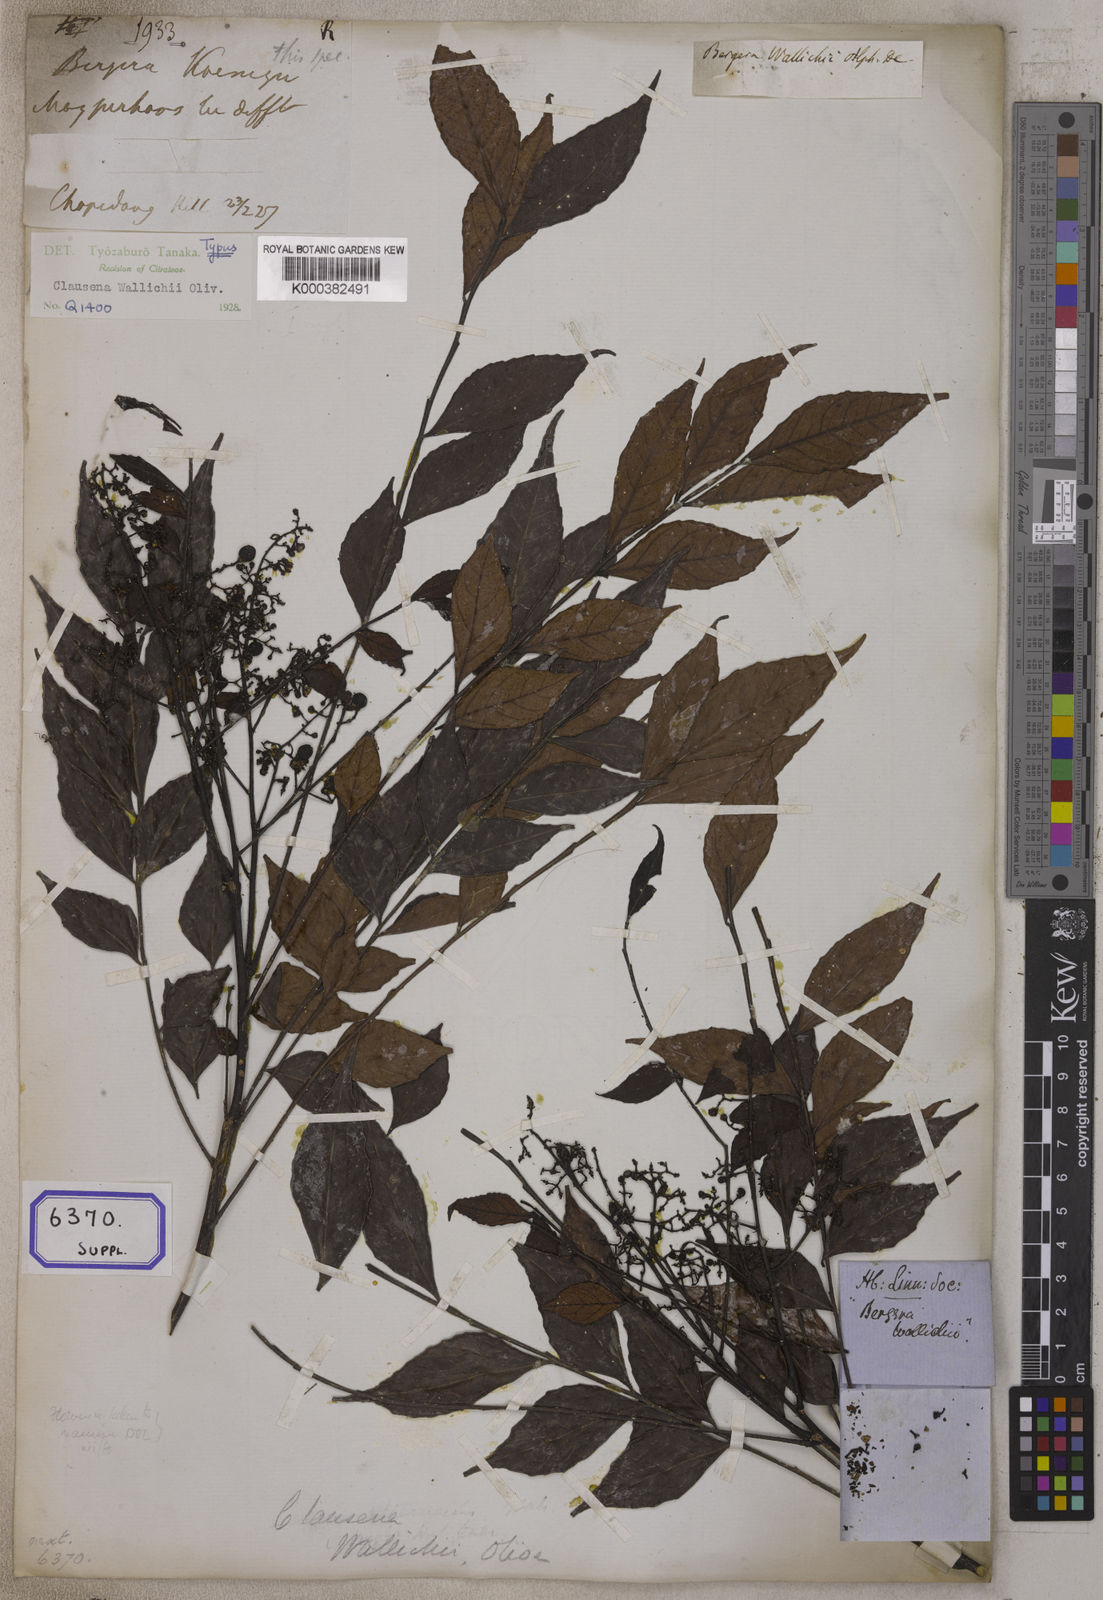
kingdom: Plantae
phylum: Tracheophyta
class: Magnoliopsida
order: Sapindales
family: Rutaceae
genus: Clausena
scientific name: Clausena wallichii
